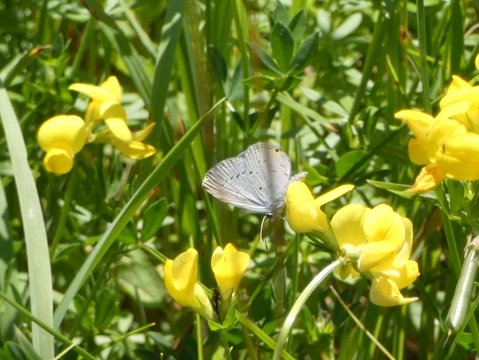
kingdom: Animalia
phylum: Arthropoda
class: Insecta
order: Lepidoptera
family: Lycaenidae
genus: Elkalyce
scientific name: Elkalyce comyntas
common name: Eastern Tailed-Blue
